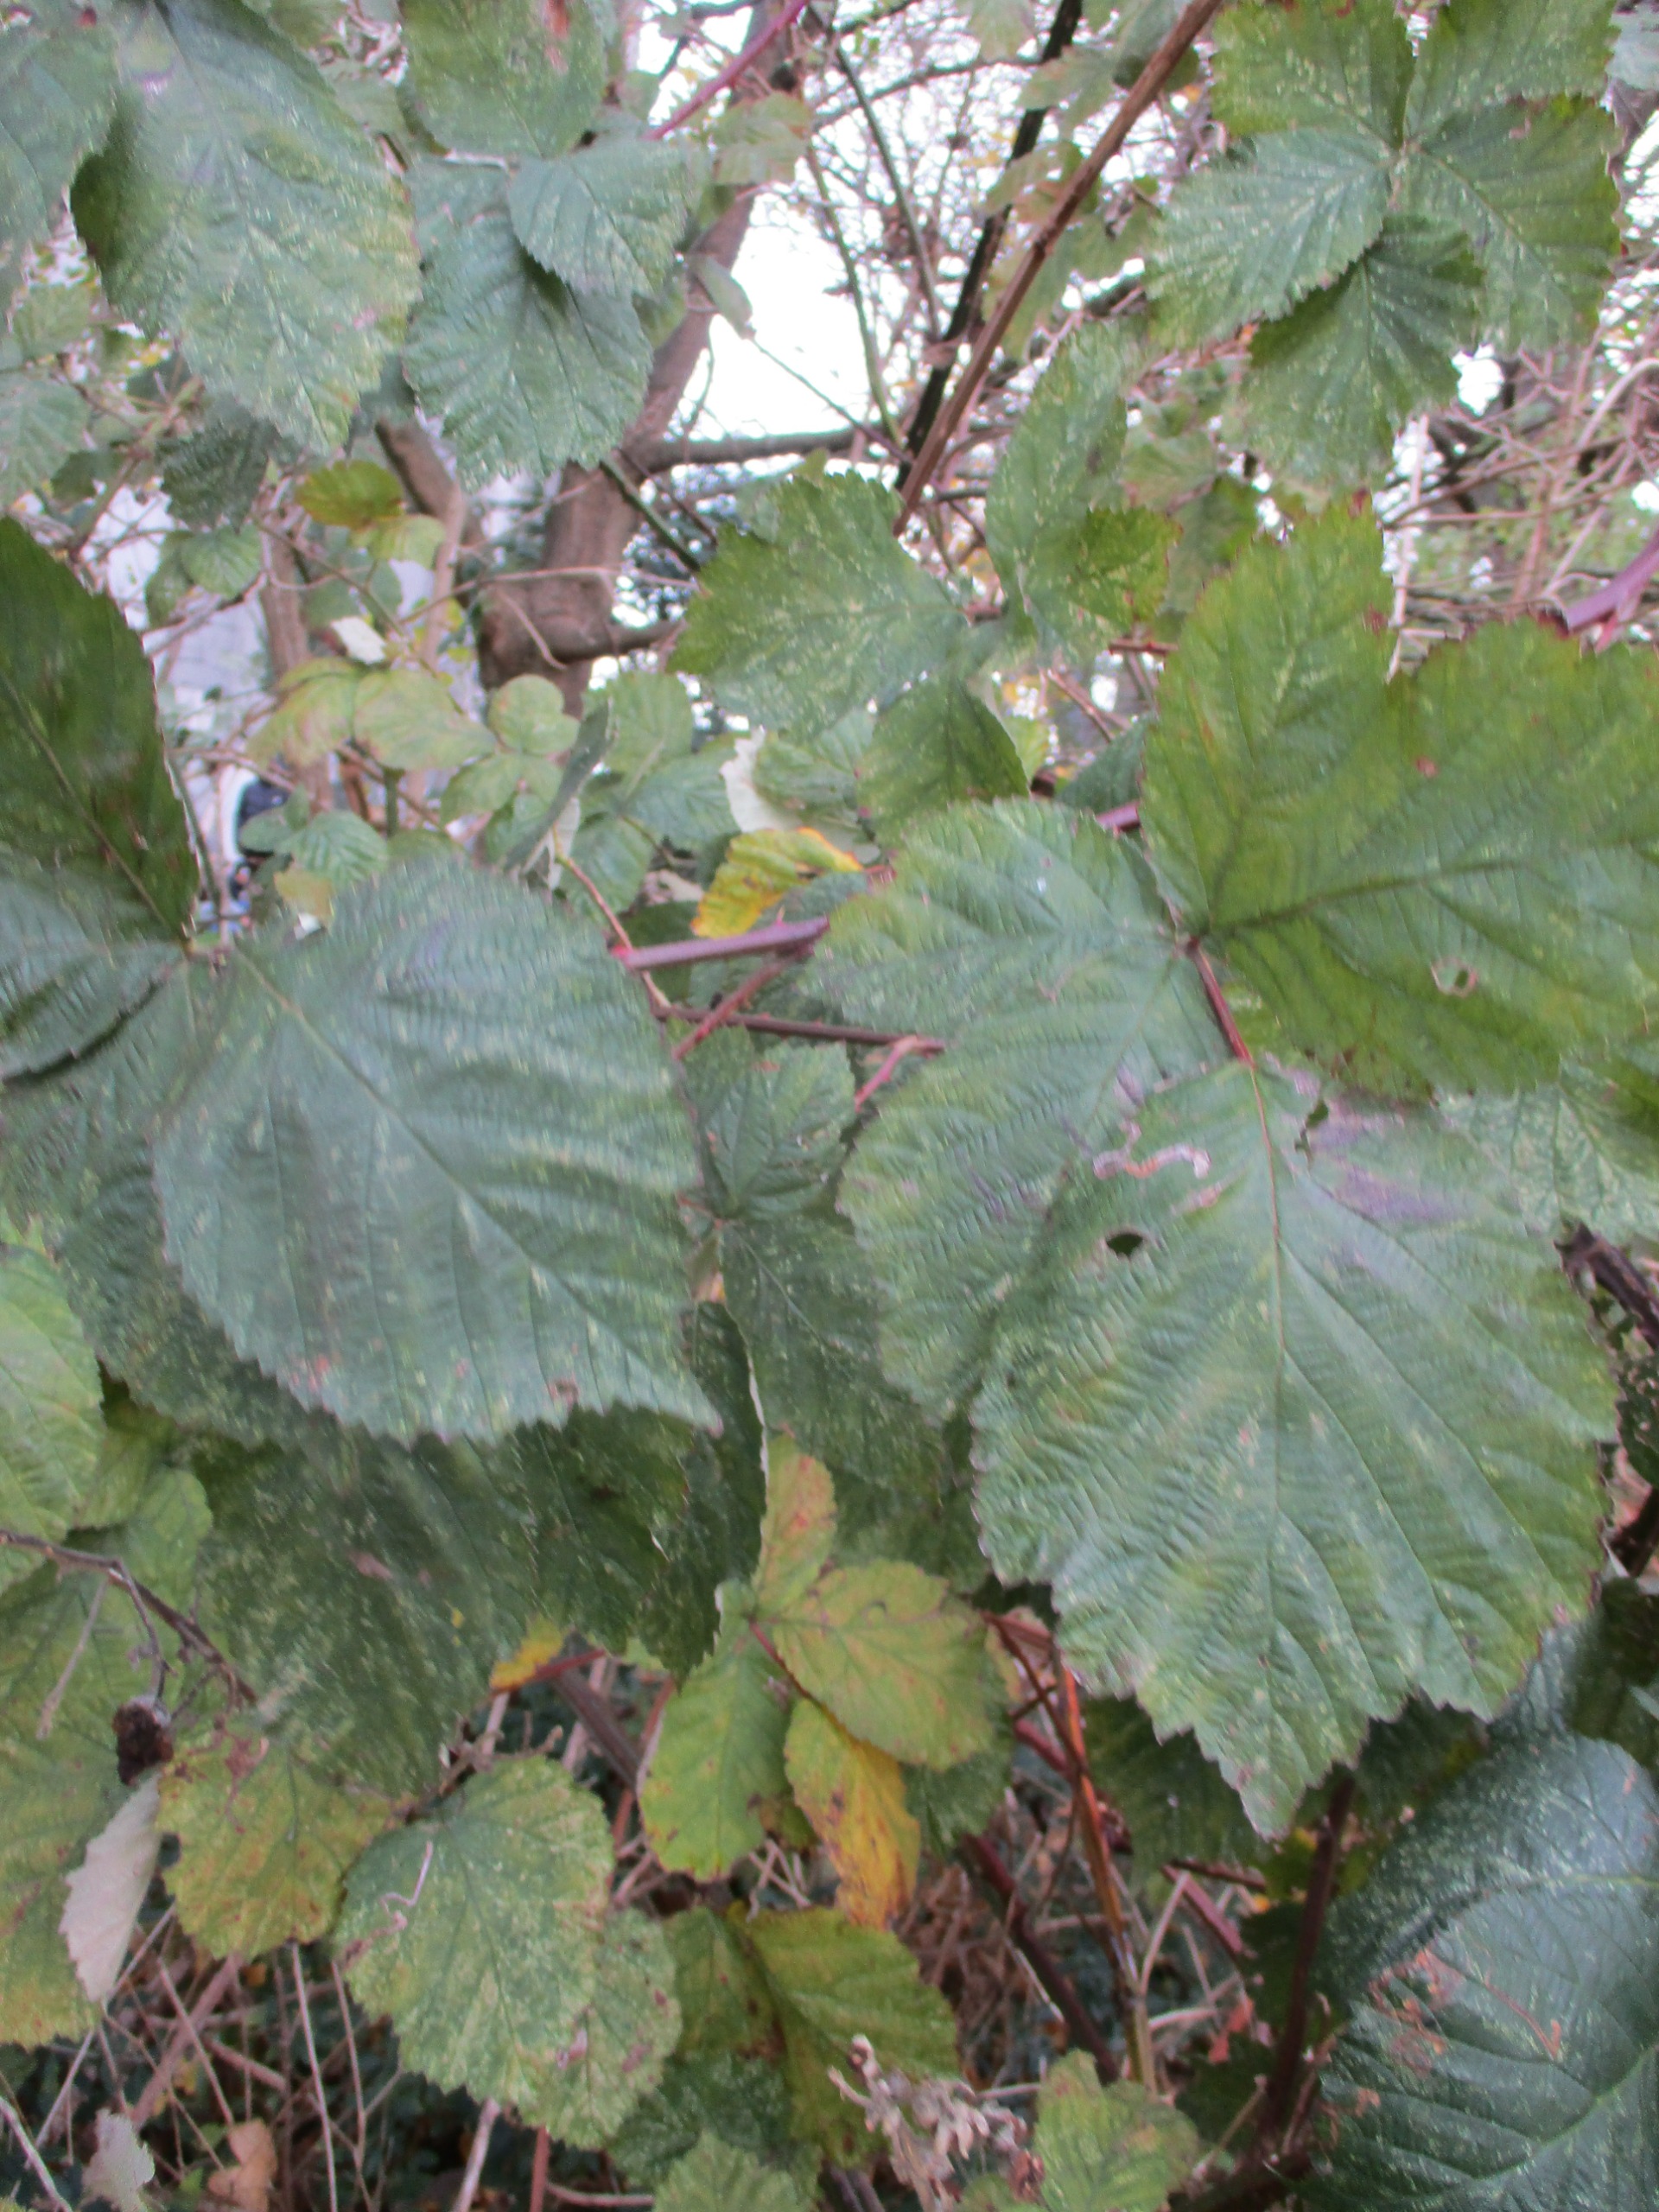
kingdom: Plantae
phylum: Tracheophyta
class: Magnoliopsida
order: Rosales
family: Rosaceae
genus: Rubus
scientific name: Rubus
